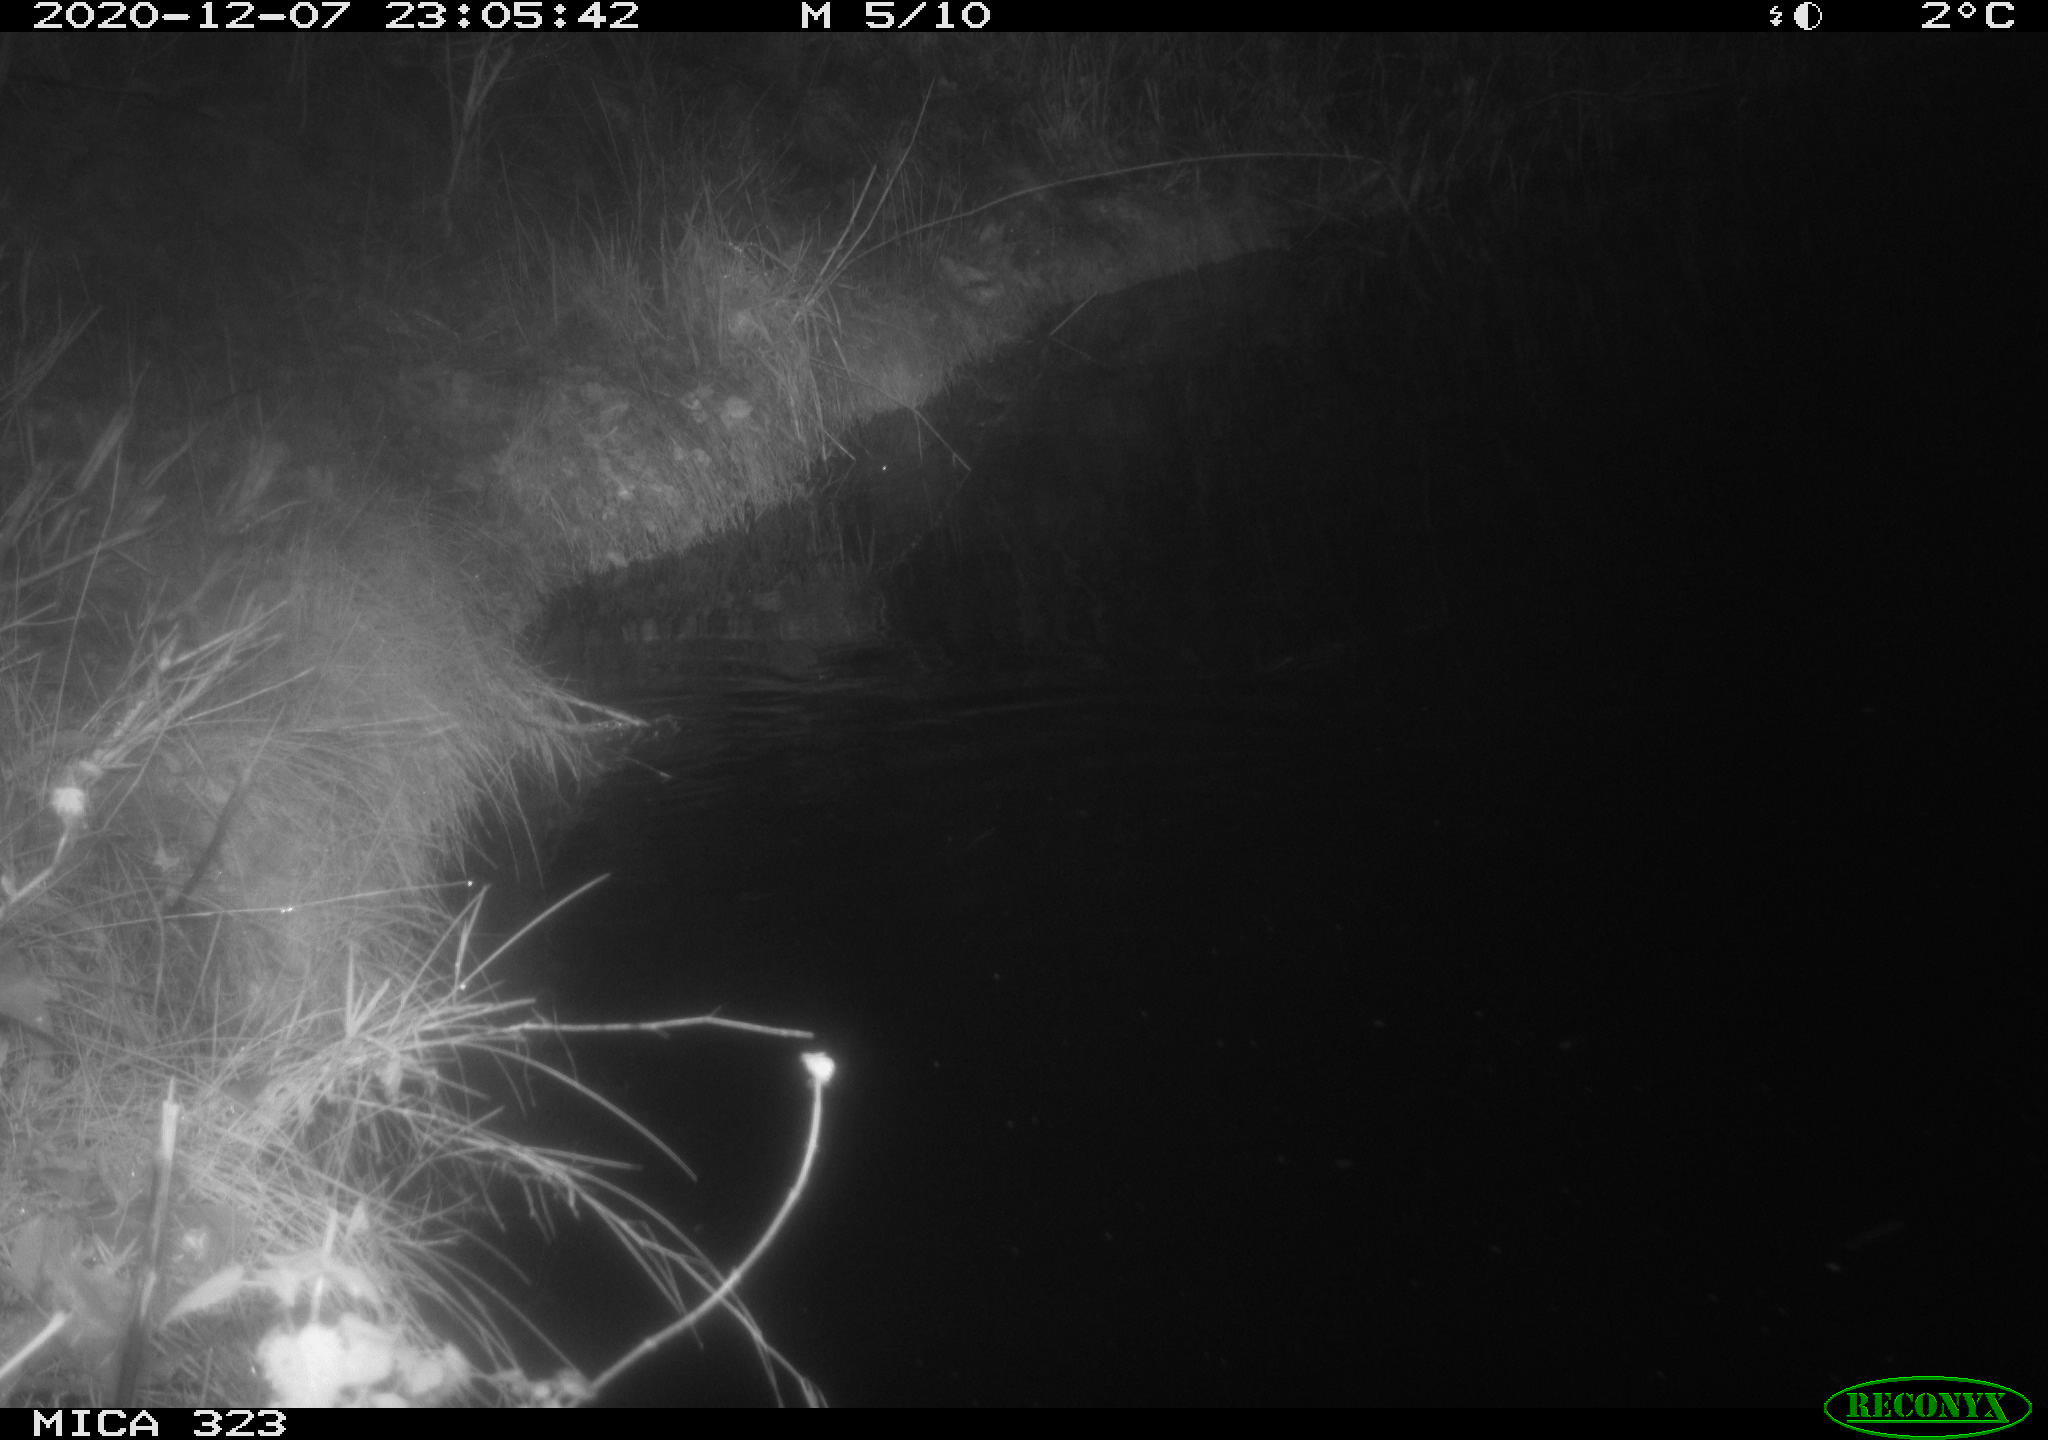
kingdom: Animalia
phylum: Chordata
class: Mammalia
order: Rodentia
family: Muridae
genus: Rattus
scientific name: Rattus norvegicus
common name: Brown rat
